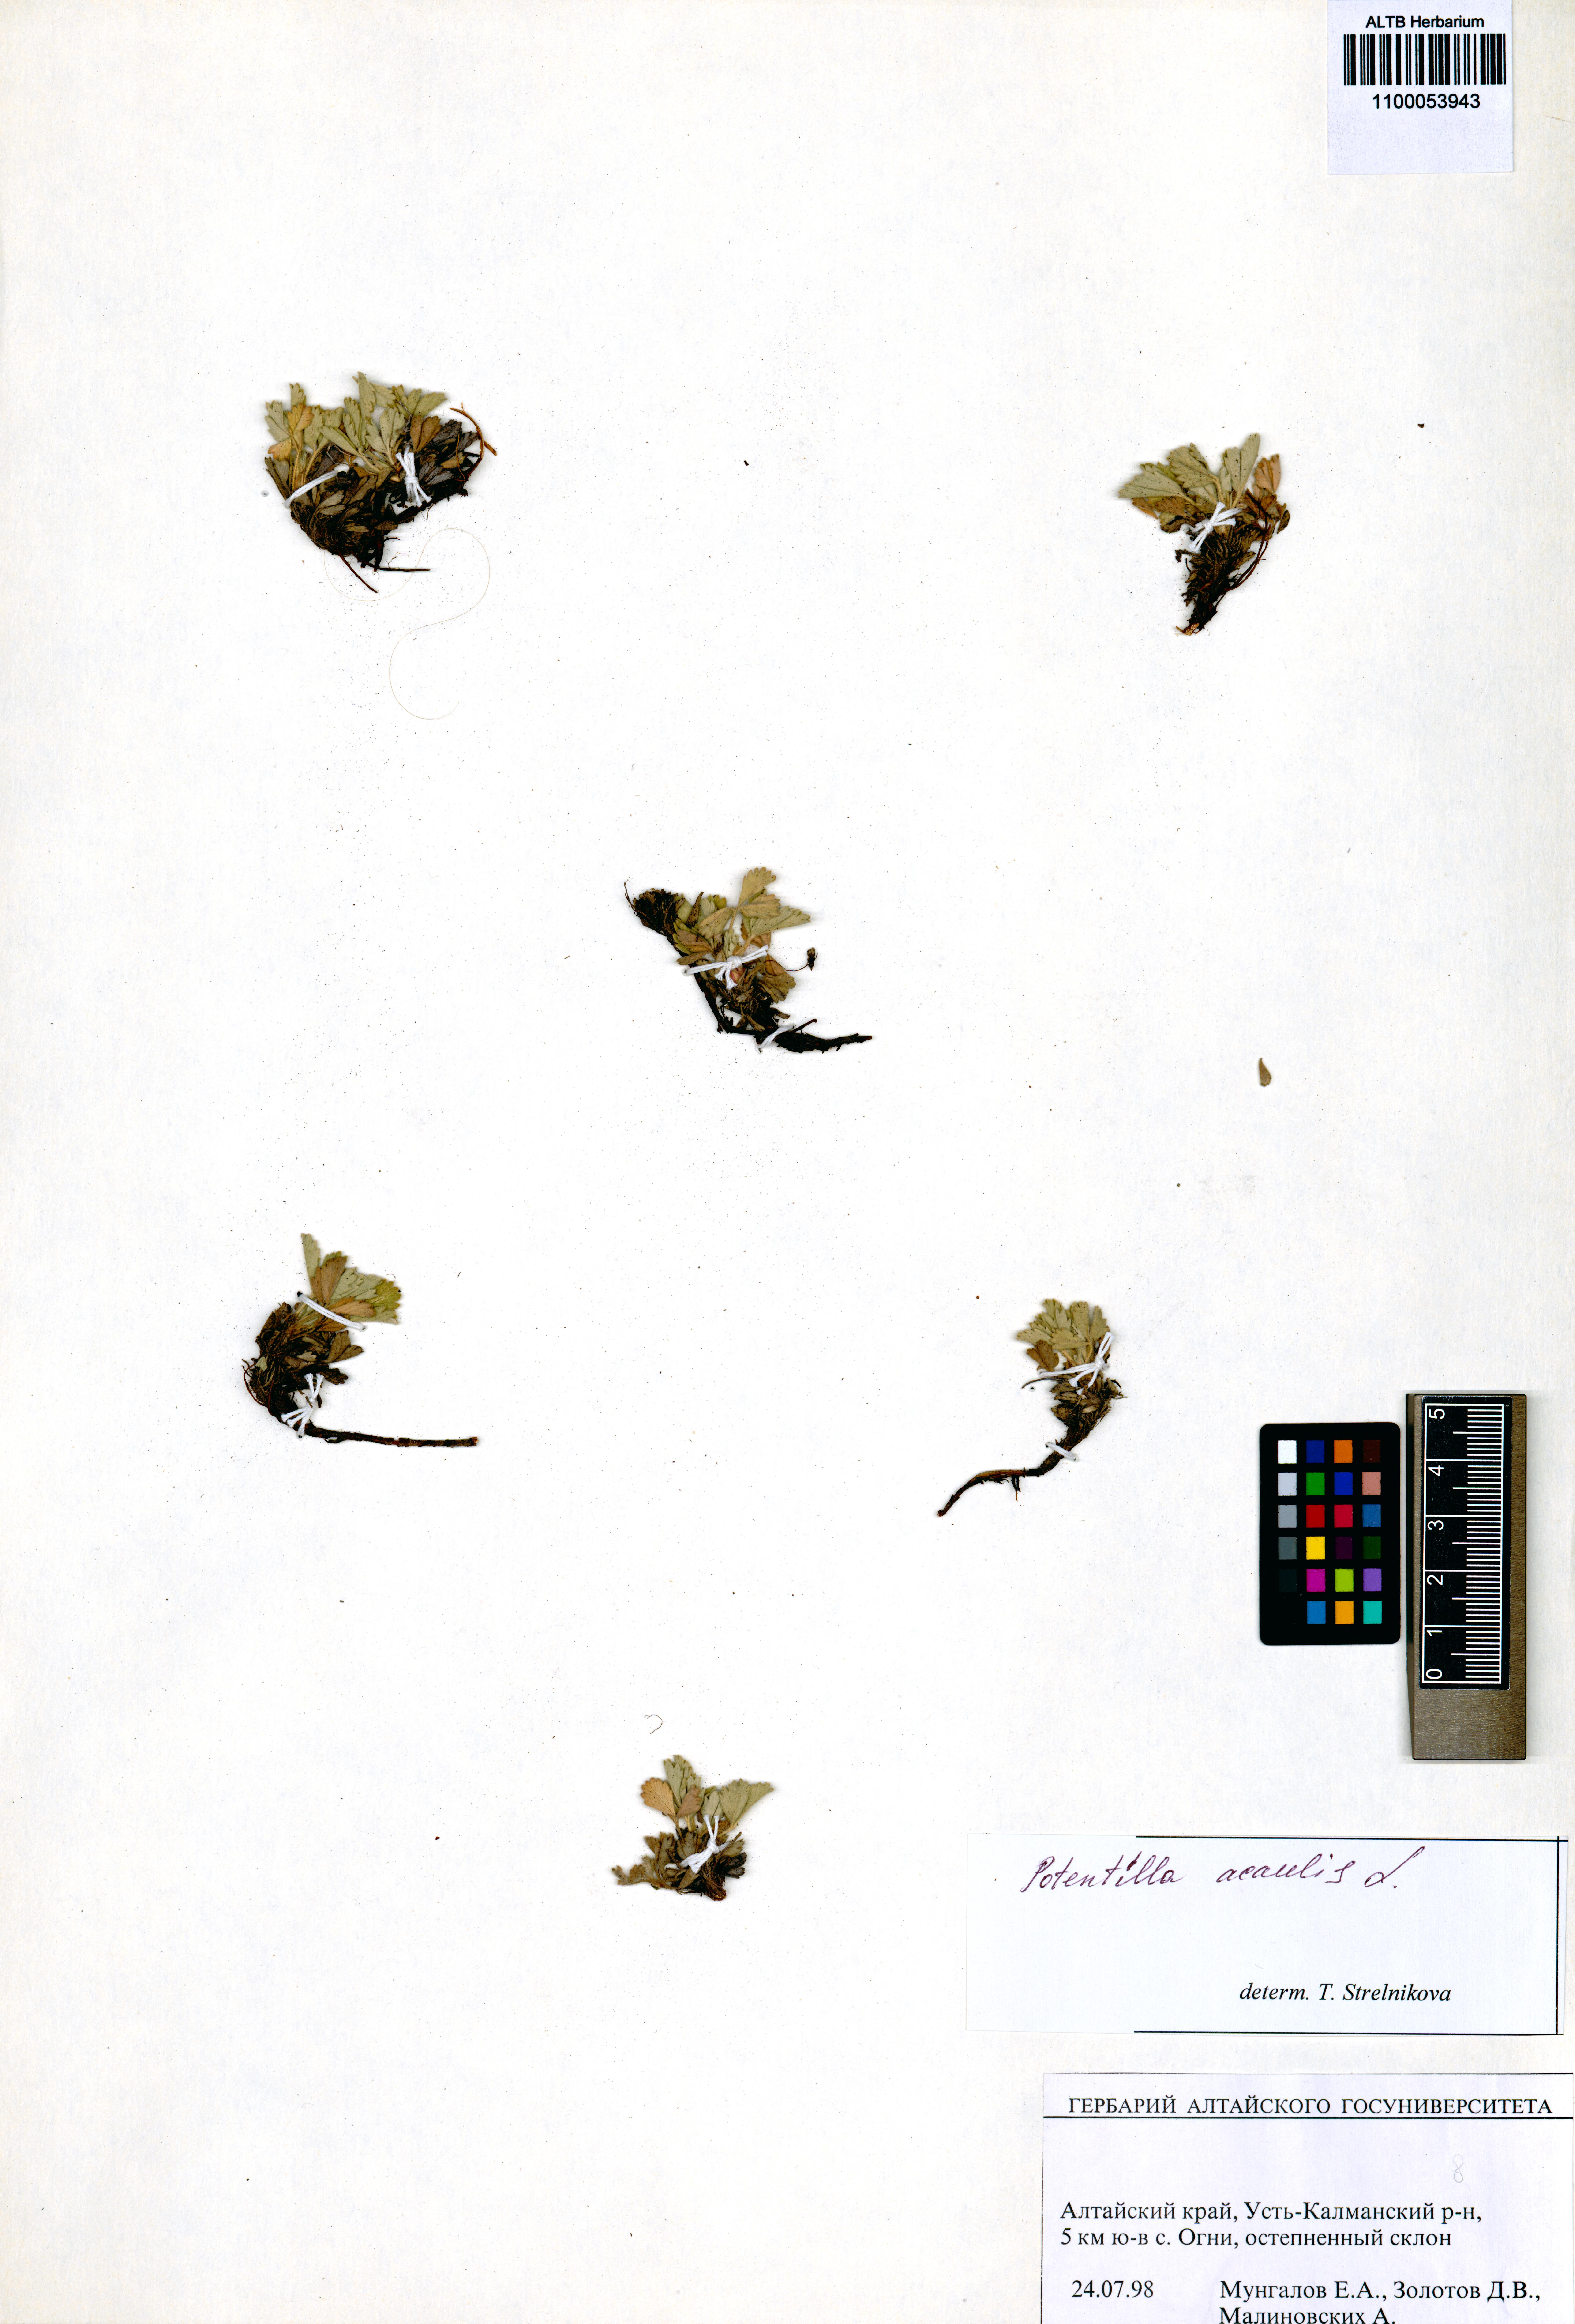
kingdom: Plantae
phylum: Tracheophyta
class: Magnoliopsida
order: Rosales
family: Rosaceae
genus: Potentilla
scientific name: Potentilla acaulis
